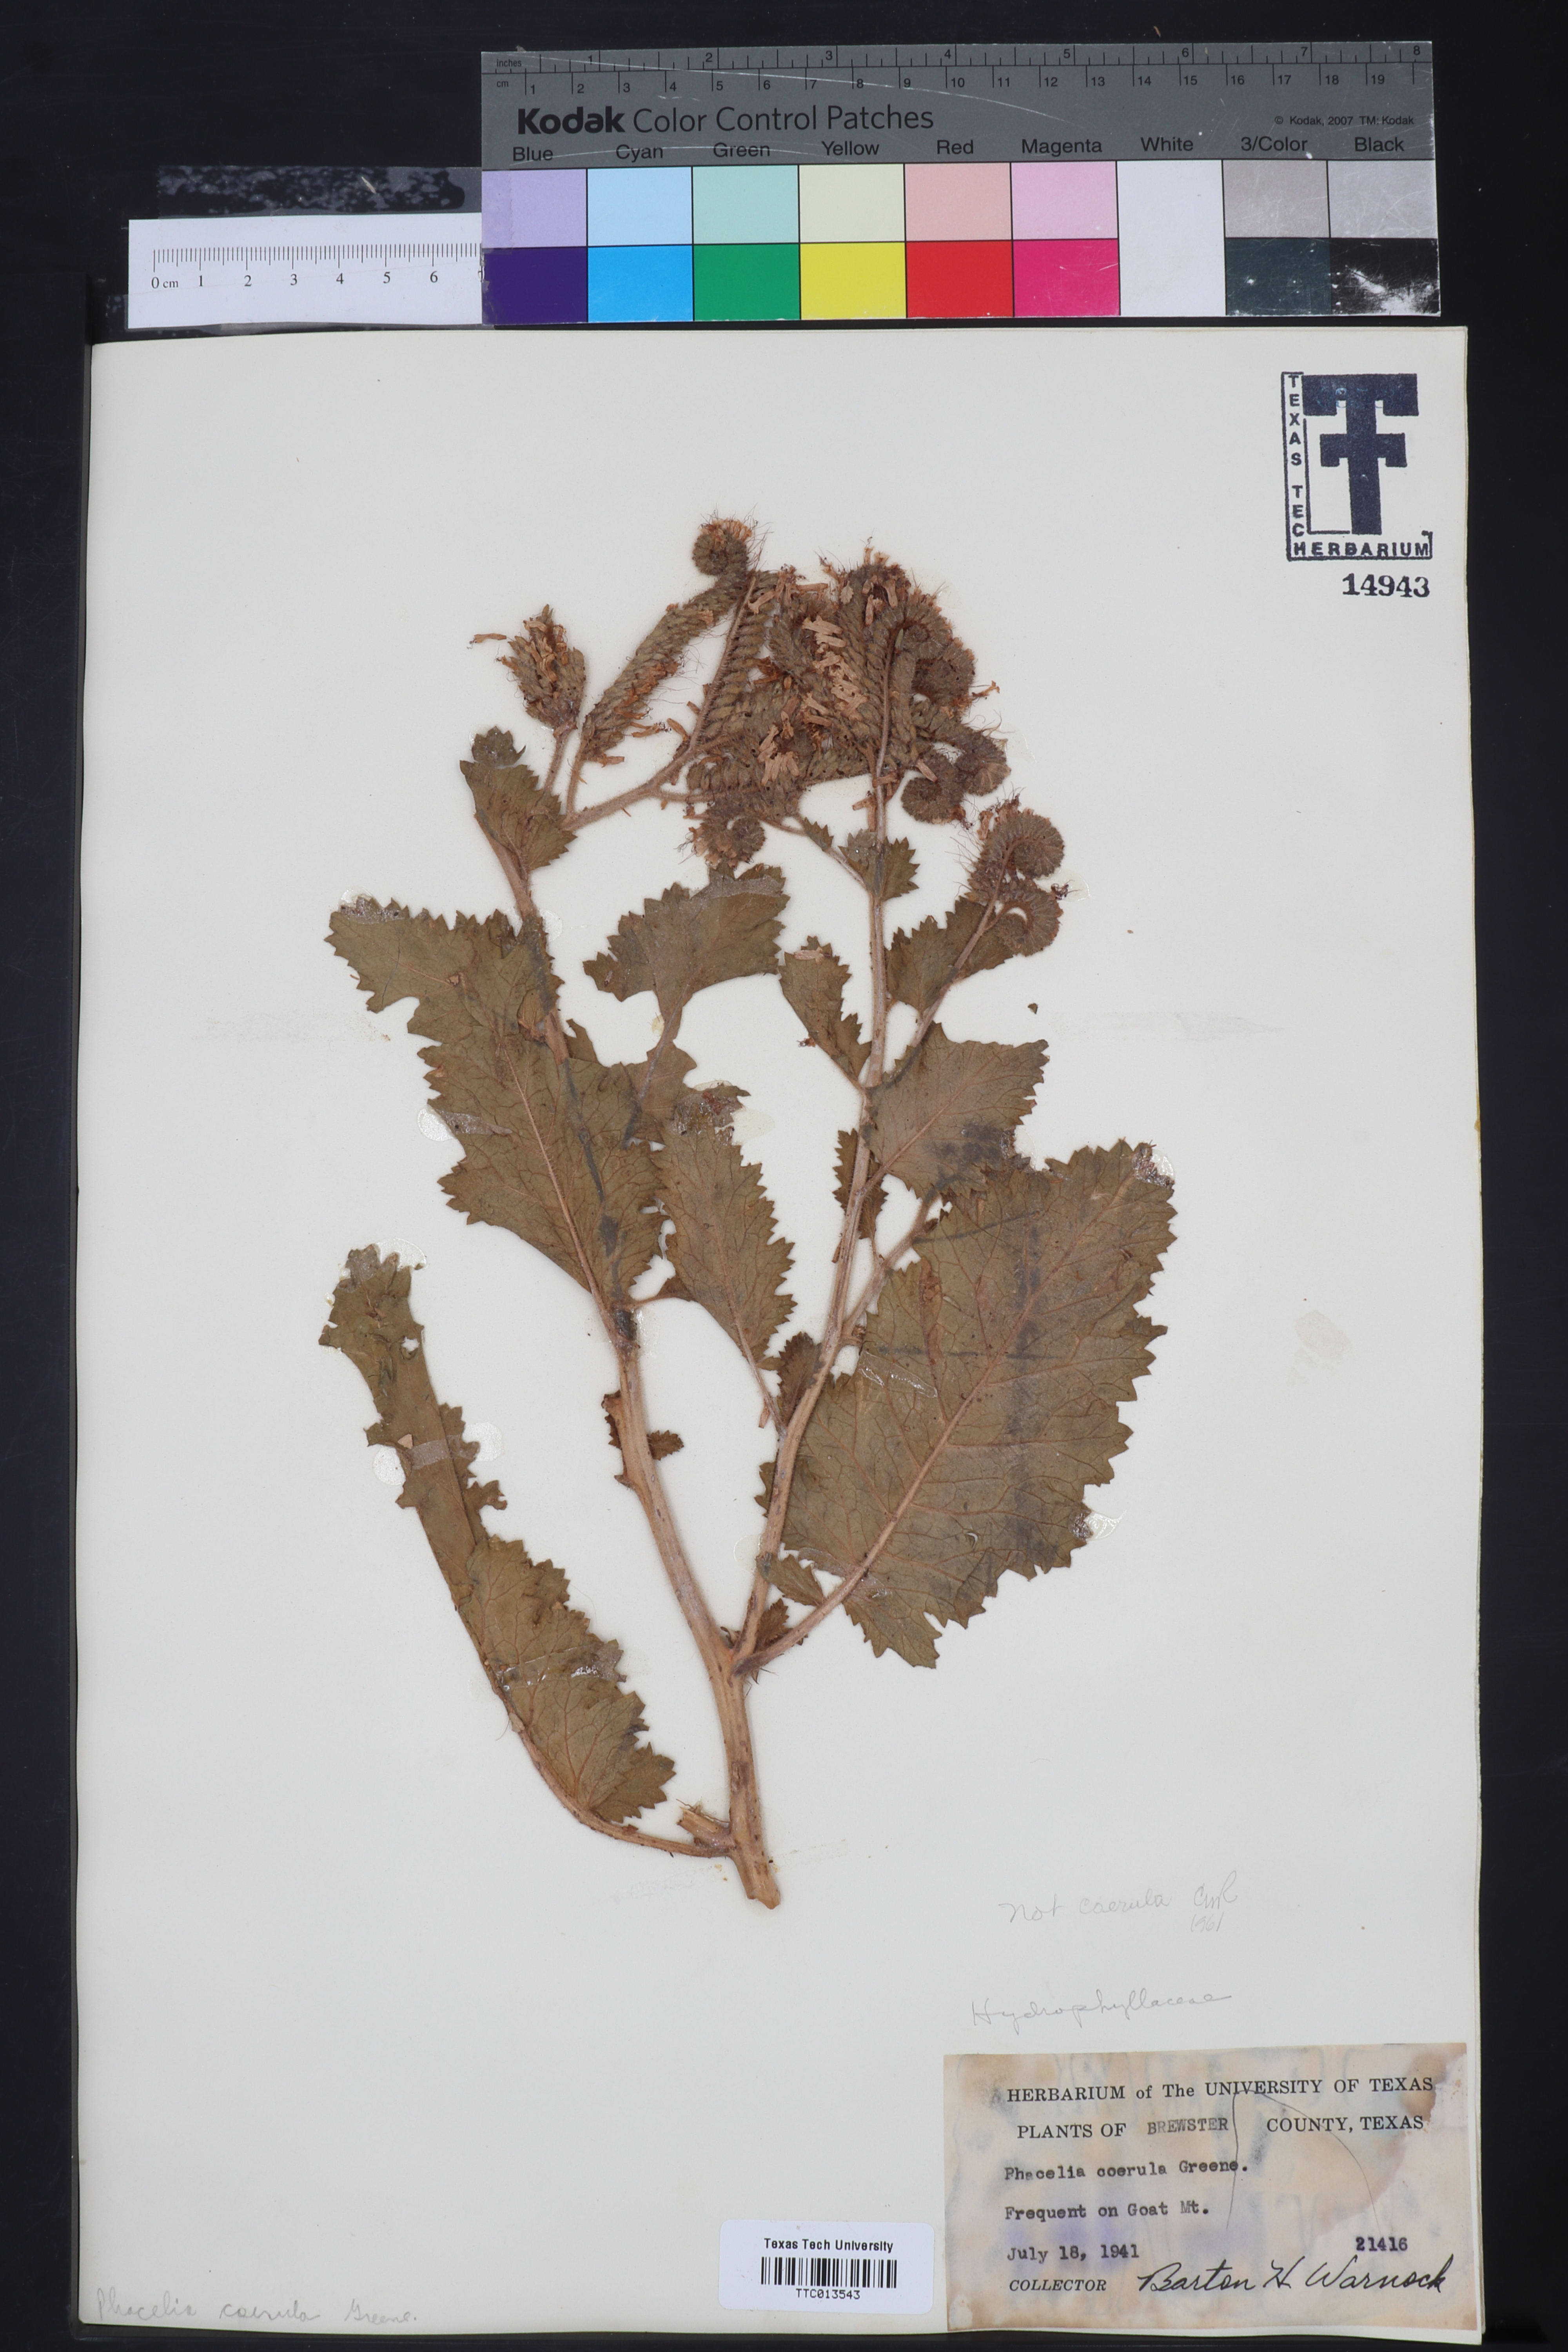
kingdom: Plantae
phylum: Tracheophyta
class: Magnoliopsida
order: Boraginales
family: Hydrophyllaceae
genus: Phacelia
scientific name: Phacelia coerulea
